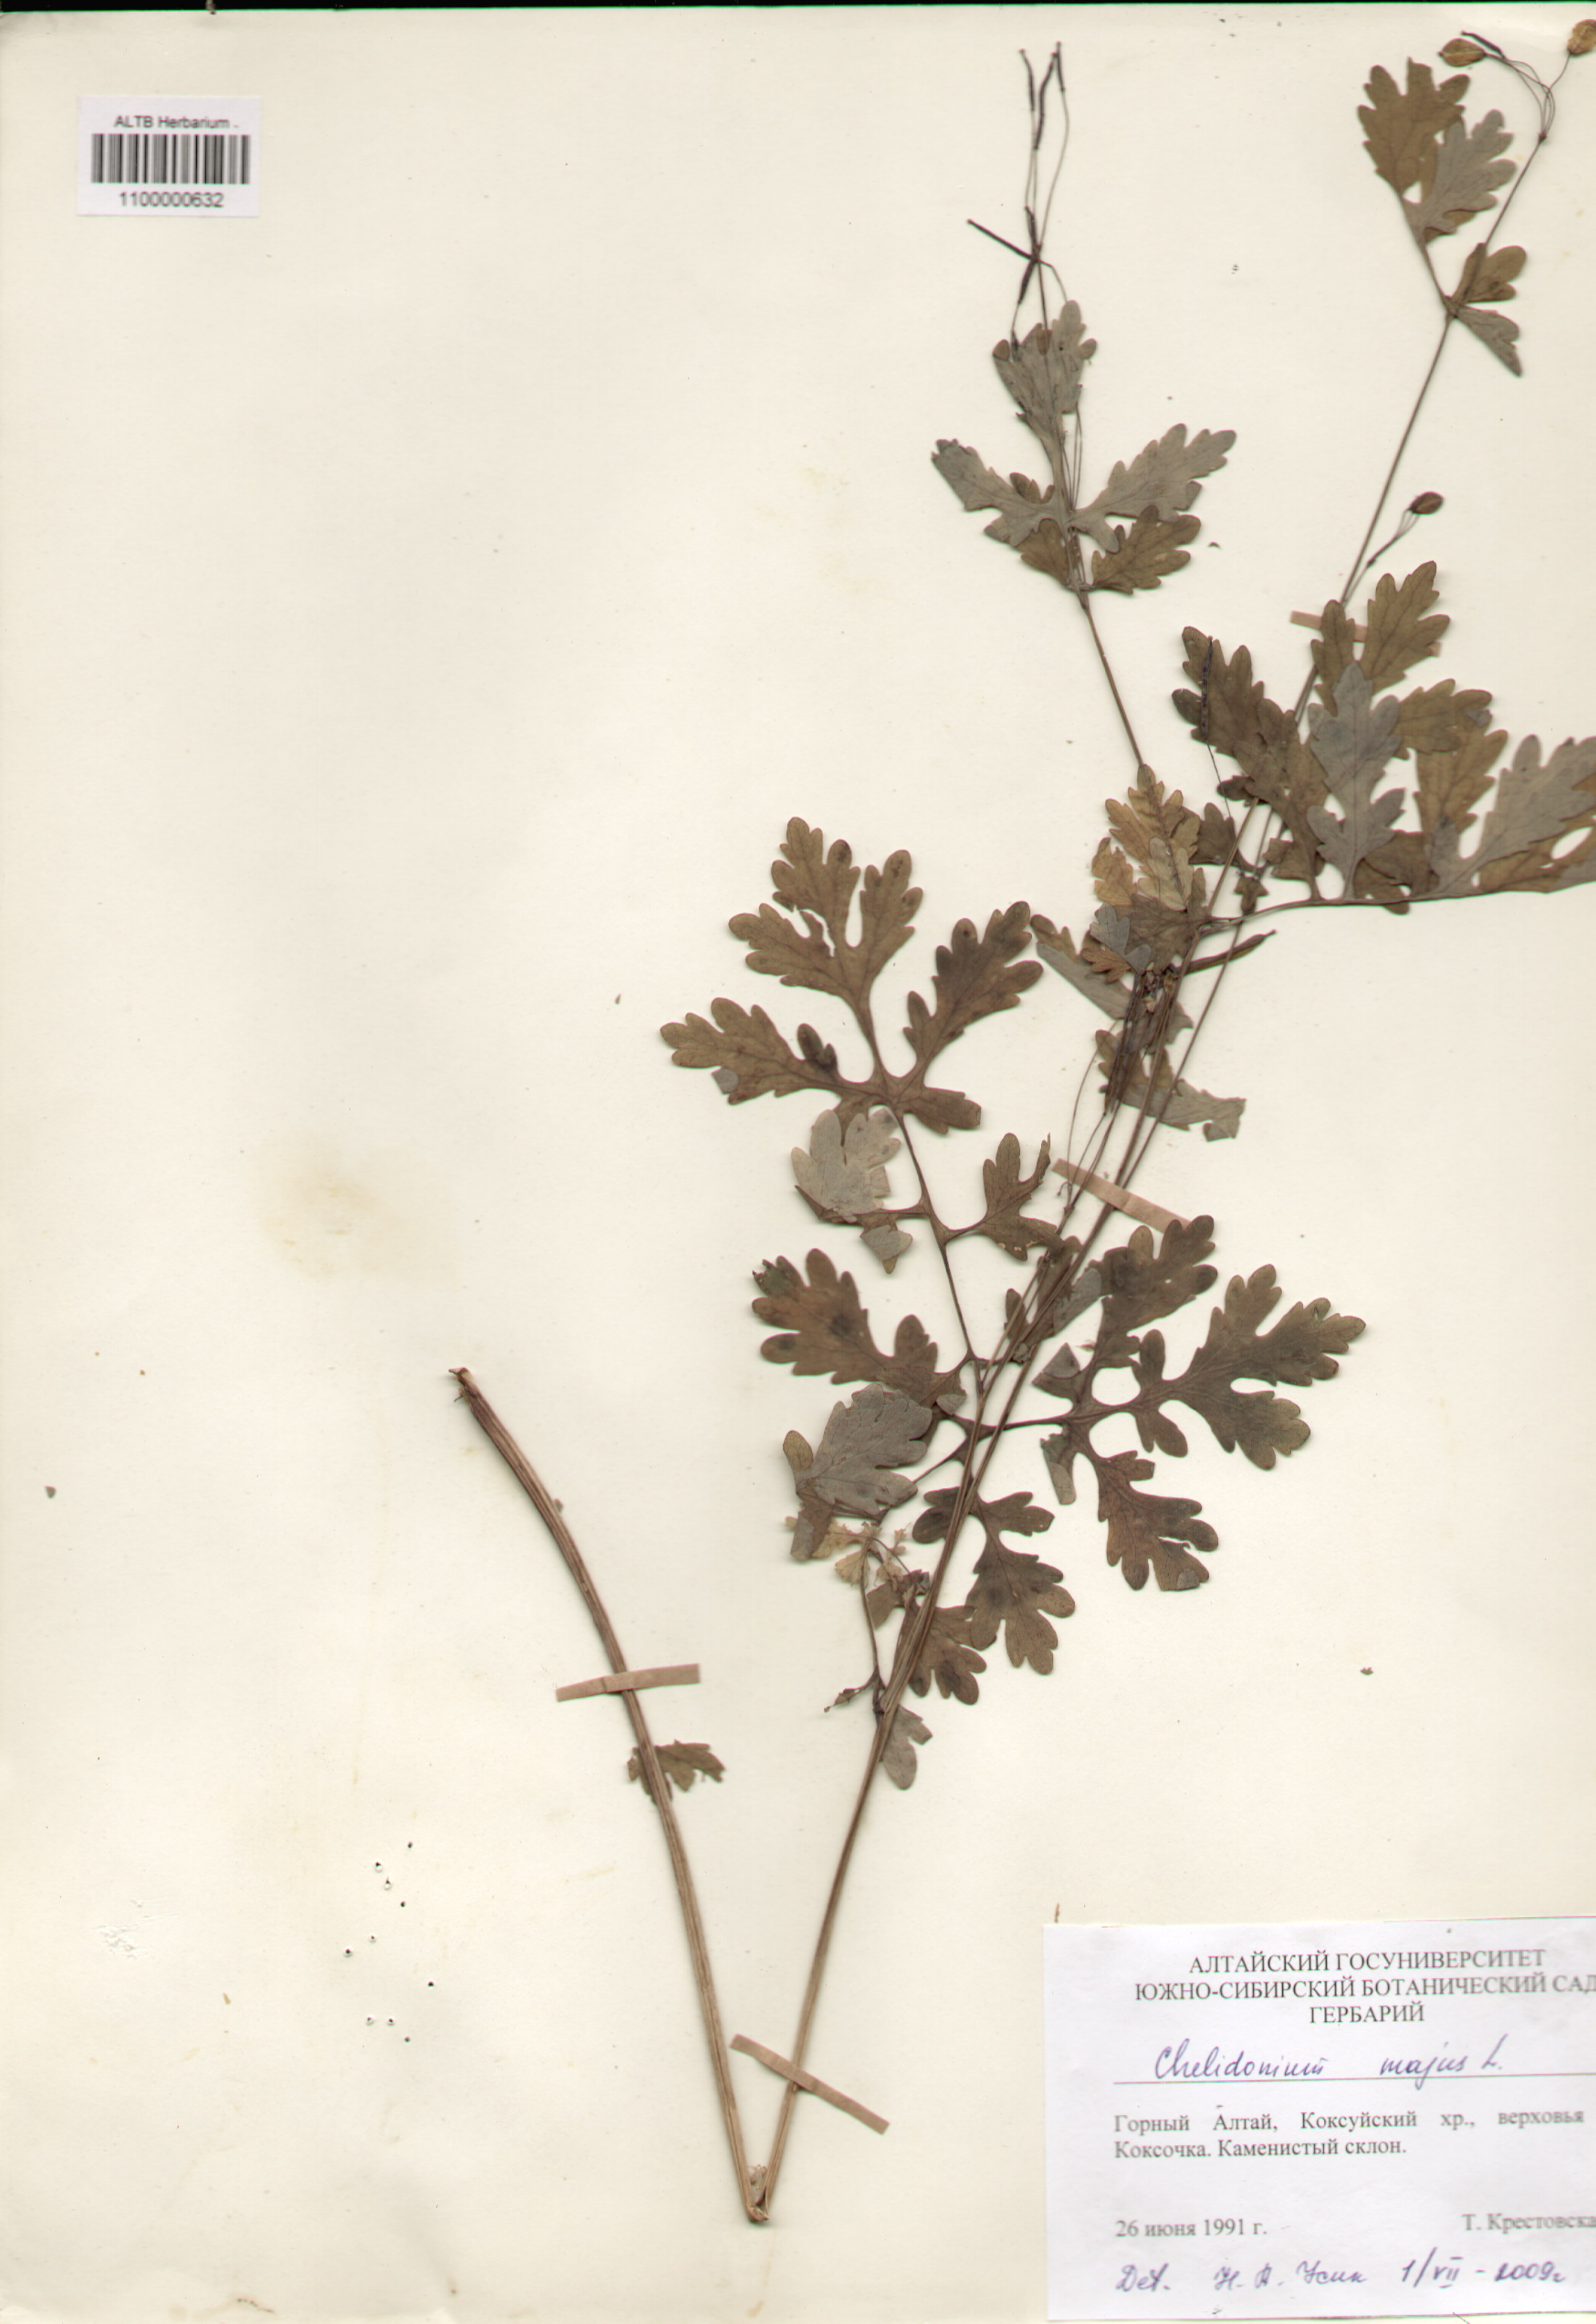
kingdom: Plantae
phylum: Tracheophyta
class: Magnoliopsida
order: Ranunculales
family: Papaveraceae
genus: Chelidonium
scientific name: Chelidonium majus
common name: Greater celandine
